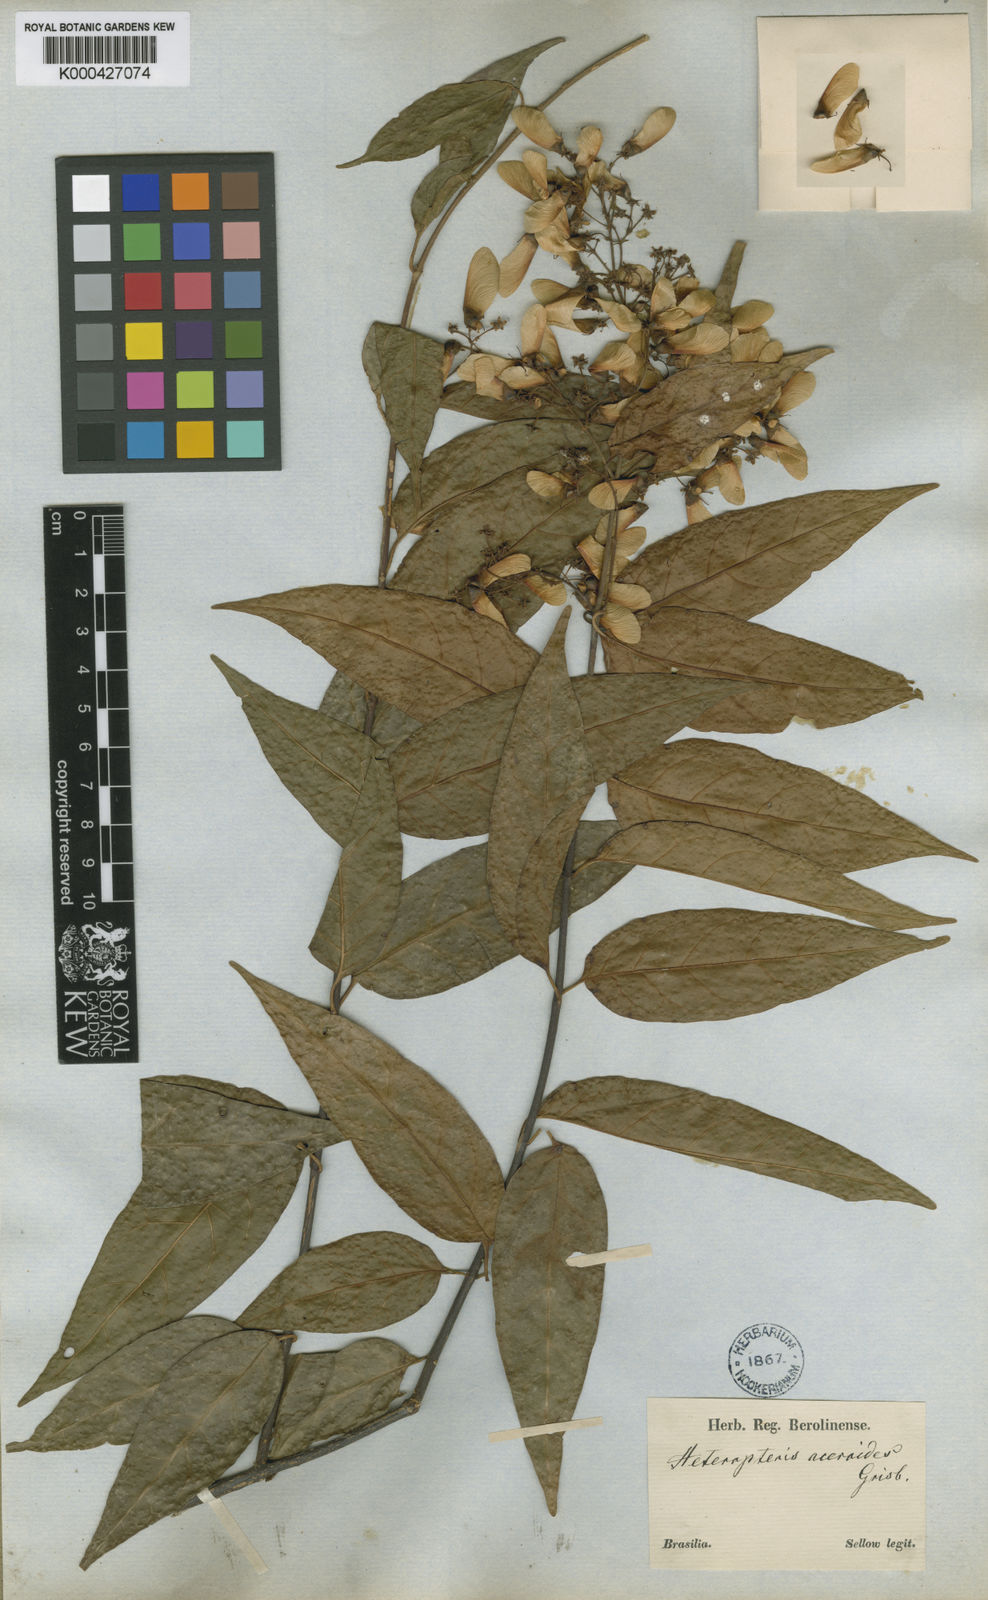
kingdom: Plantae
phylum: Tracheophyta
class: Magnoliopsida
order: Malpighiales
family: Malpighiaceae
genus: Heteropterys
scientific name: Heteropterys intermedia
